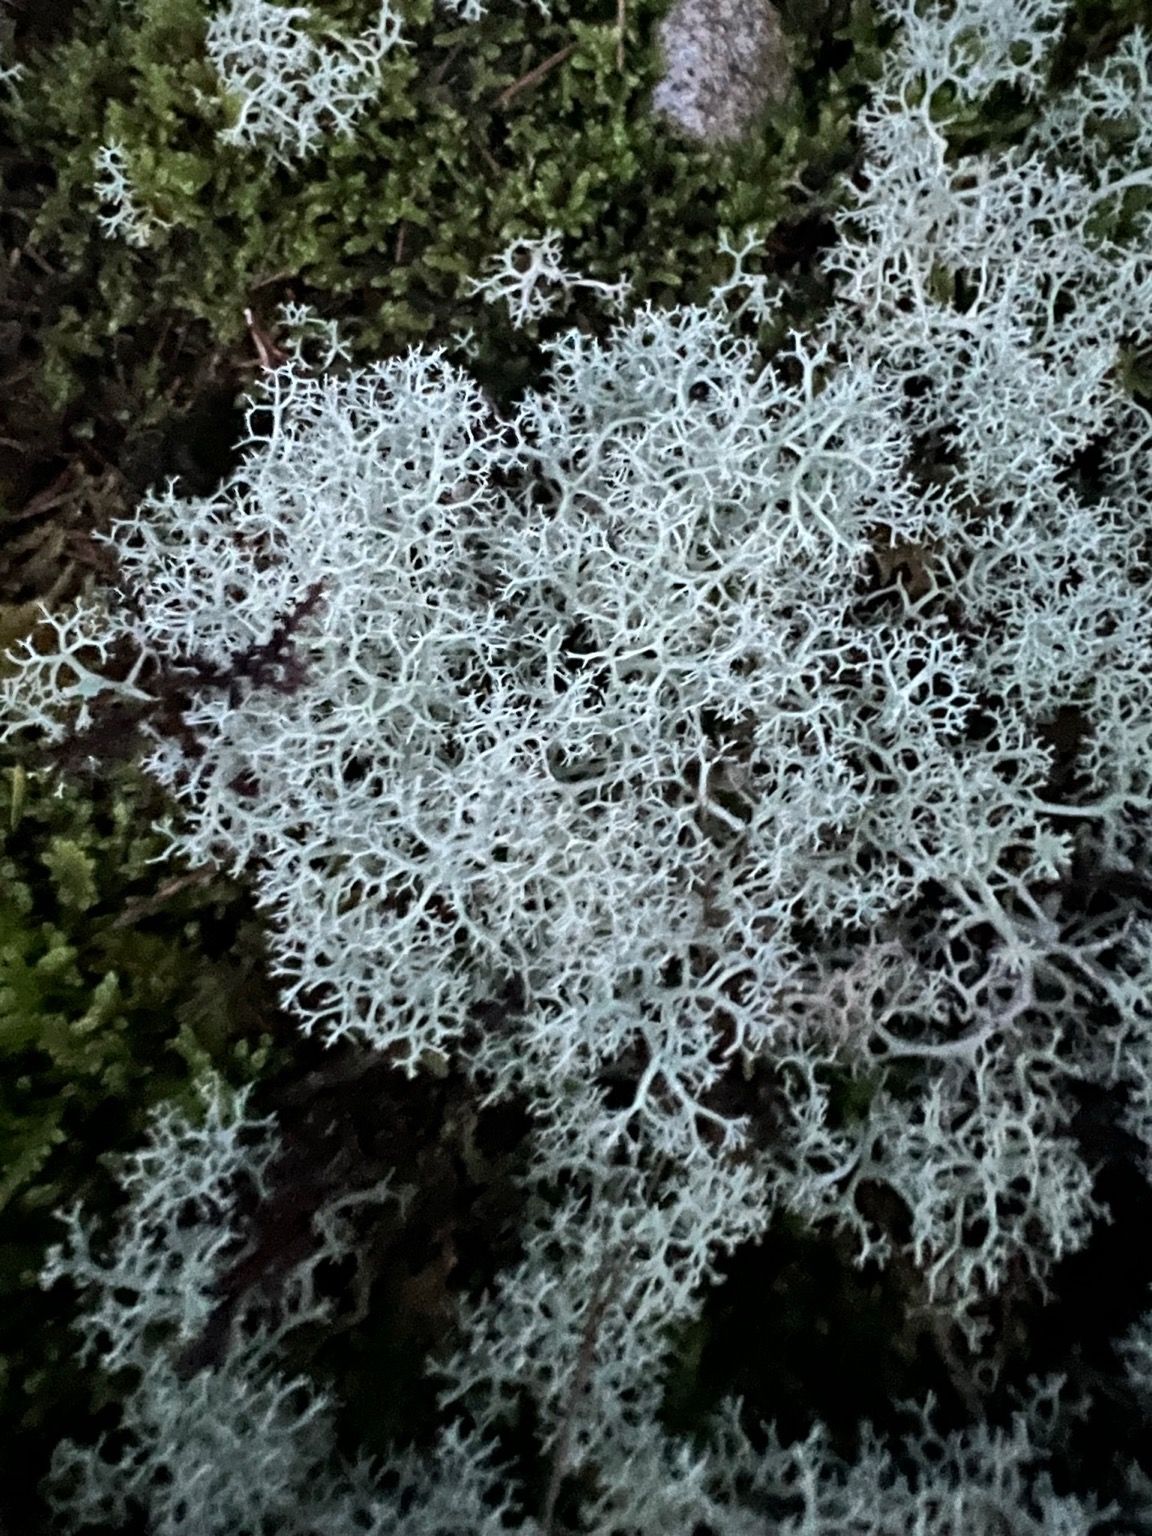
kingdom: Fungi
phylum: Ascomycota
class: Lecanoromycetes
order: Lecanorales
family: Cladoniaceae
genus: Cladonia
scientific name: Cladonia portentosa
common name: Hede-rensdyrlav
